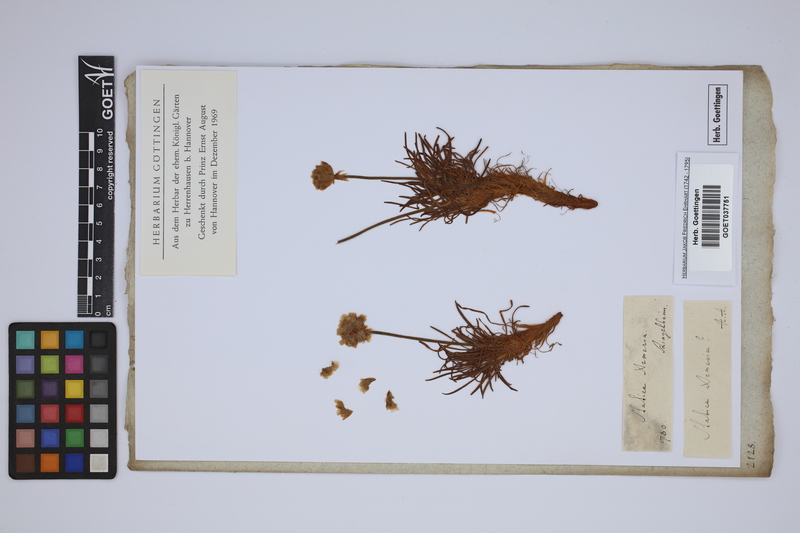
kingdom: Plantae
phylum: Tracheophyta
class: Magnoliopsida
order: Caryophyllales
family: Plumbaginaceae
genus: Armeria
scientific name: Armeria maritima
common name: Thrift
